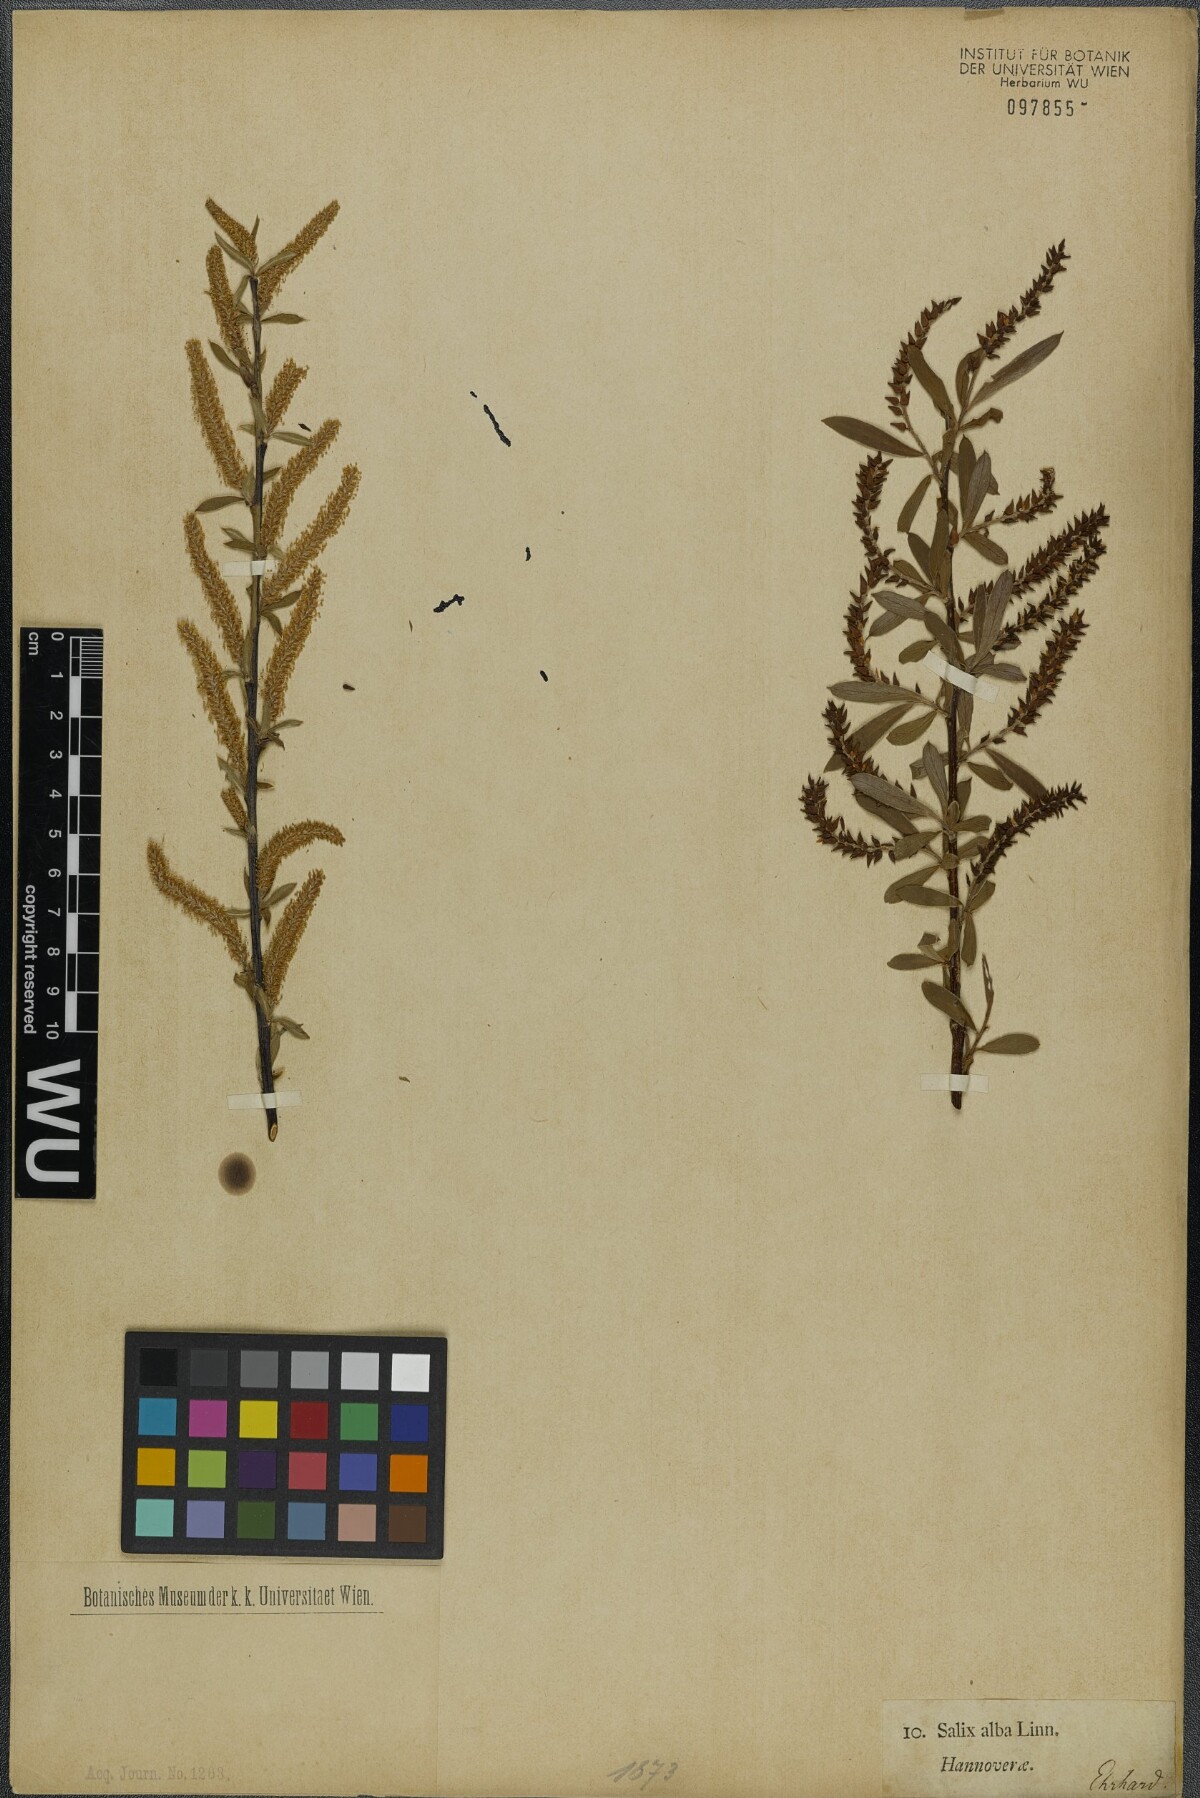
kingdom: Plantae
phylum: Tracheophyta
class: Magnoliopsida
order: Malpighiales
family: Salicaceae
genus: Salix
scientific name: Salix alba
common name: White willow
